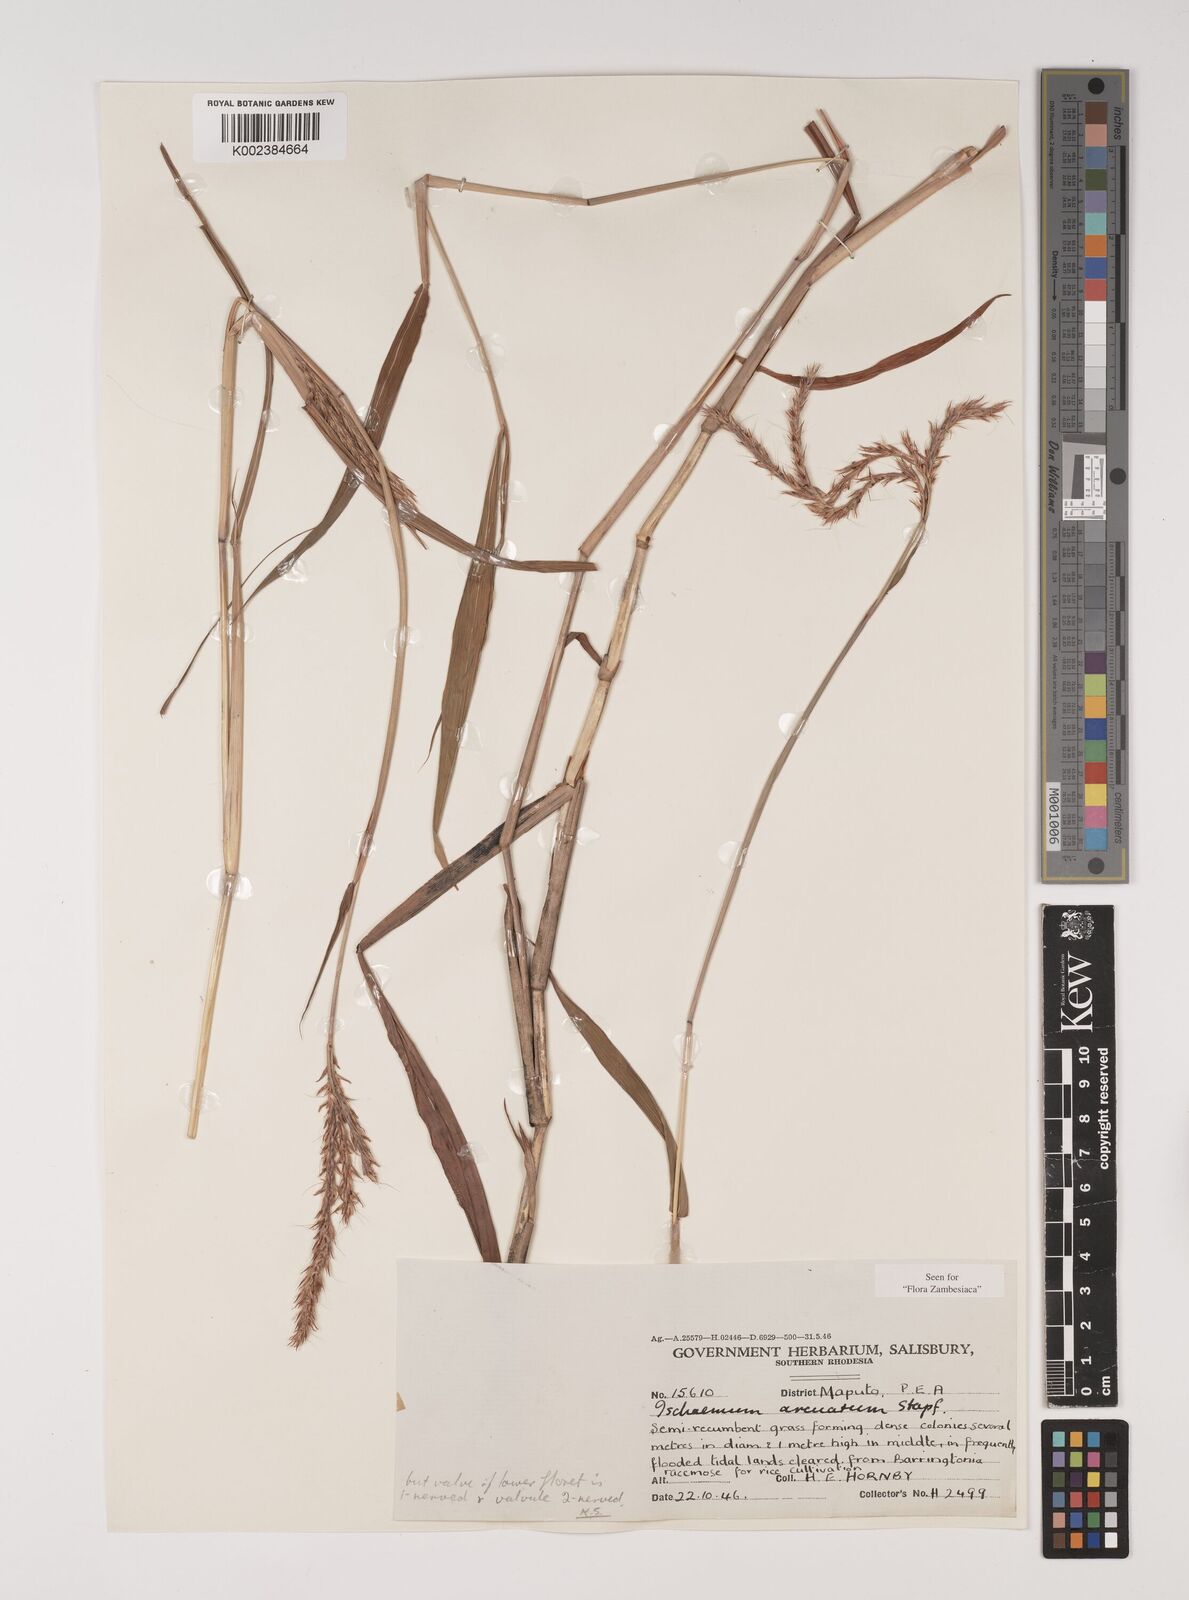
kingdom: Plantae
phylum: Tracheophyta
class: Liliopsida
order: Poales
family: Poaceae
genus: Ischaemum
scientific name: Ischaemum
